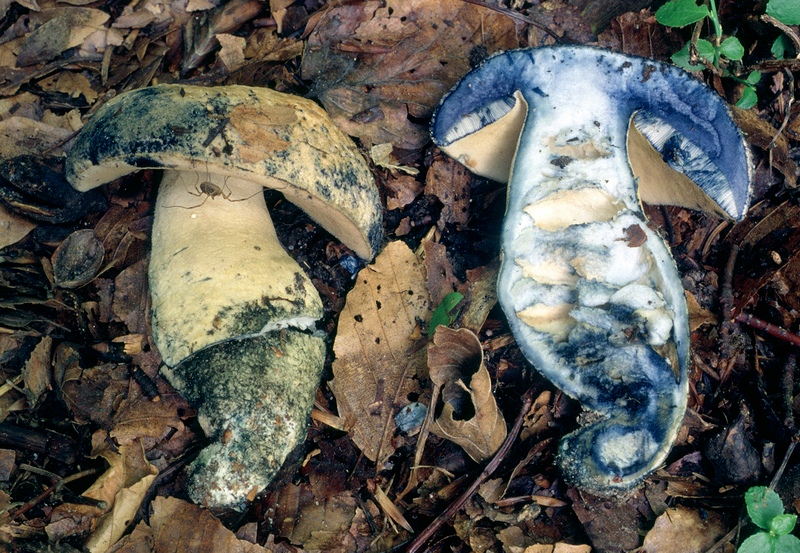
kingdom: Fungi
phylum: Basidiomycota
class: Agaricomycetes
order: Boletales
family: Gyroporaceae
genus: Gyroporus
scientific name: Gyroporus cyanescens
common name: blånende kammerrørhat
